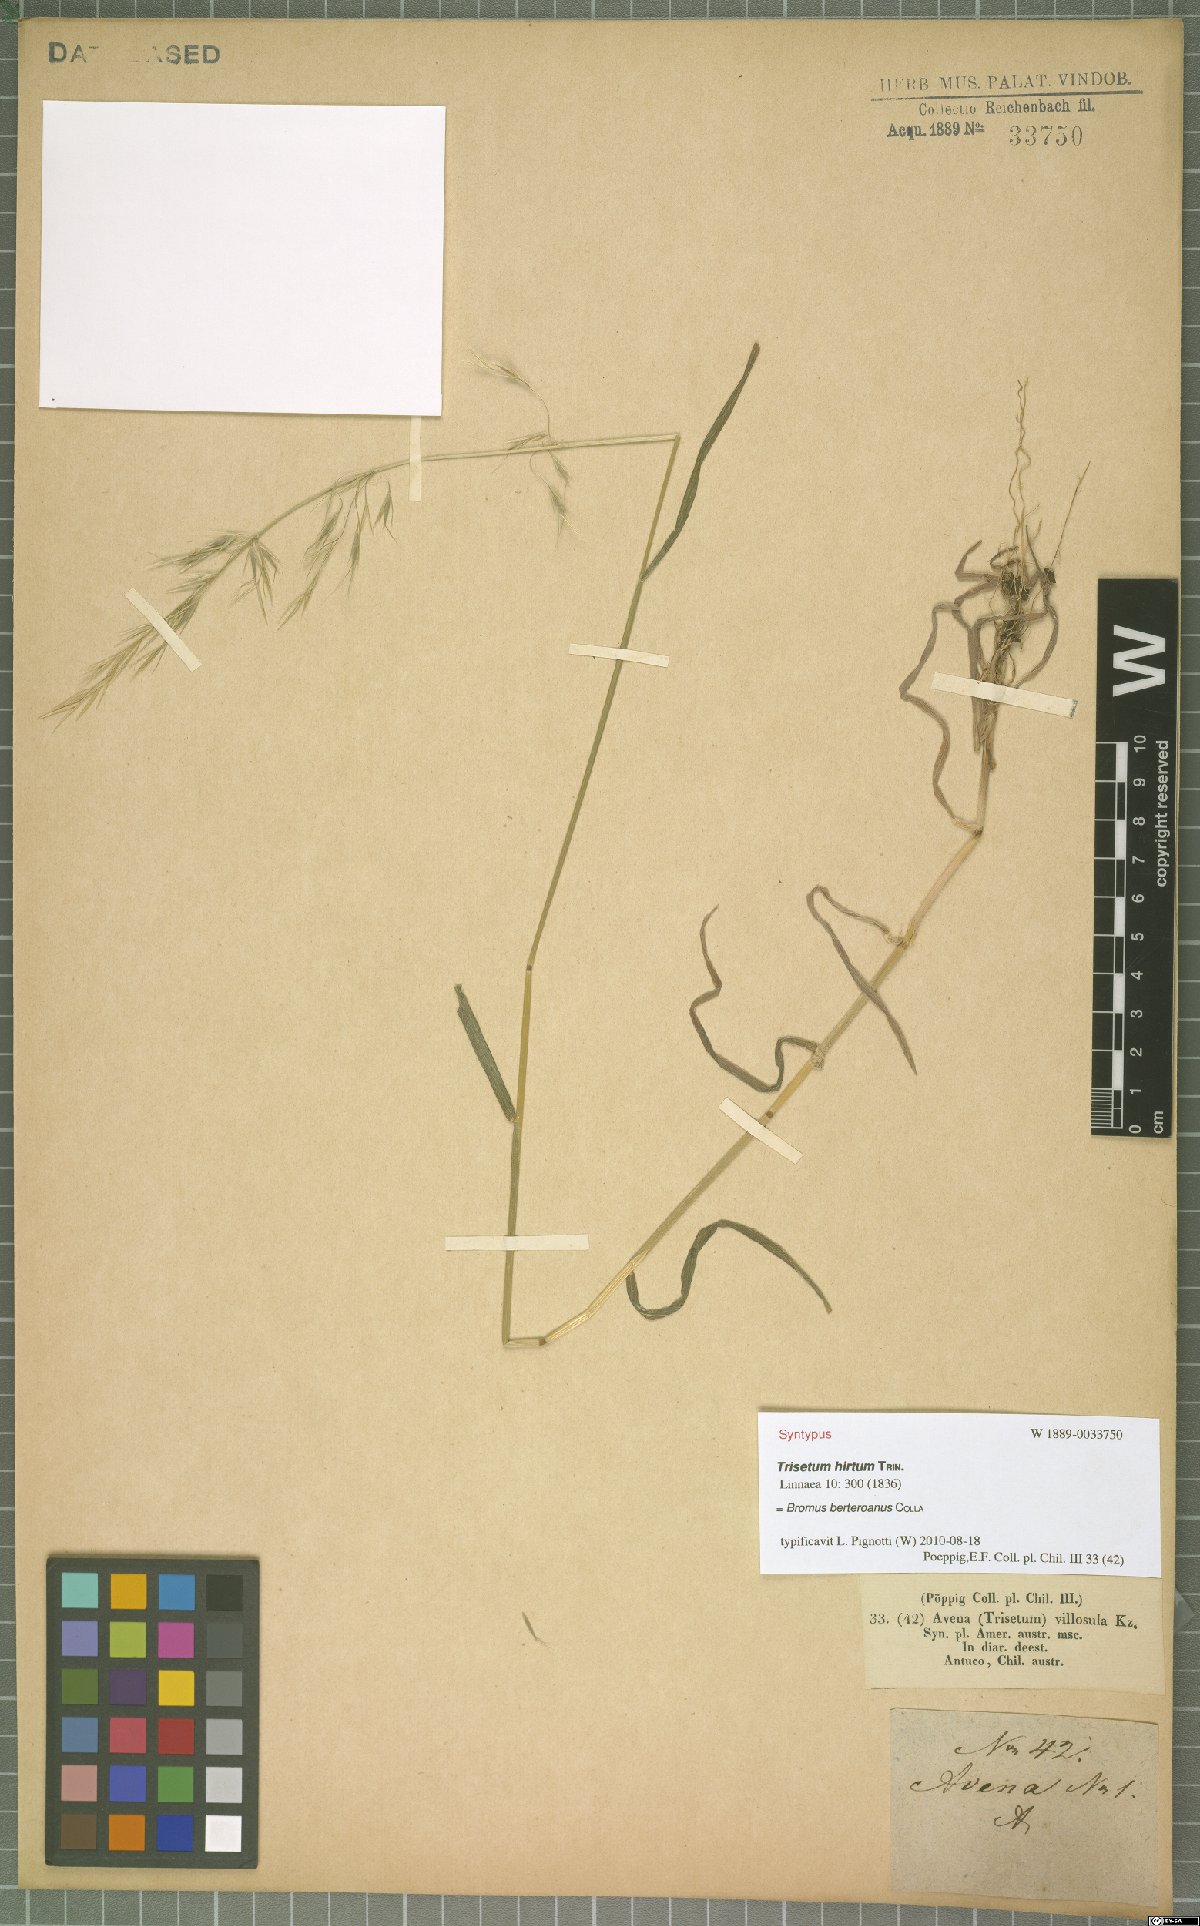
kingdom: Plantae
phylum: Tracheophyta
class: Liliopsida
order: Poales
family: Poaceae
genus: Bromus
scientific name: Bromus berteroanus
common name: Chilean chess
